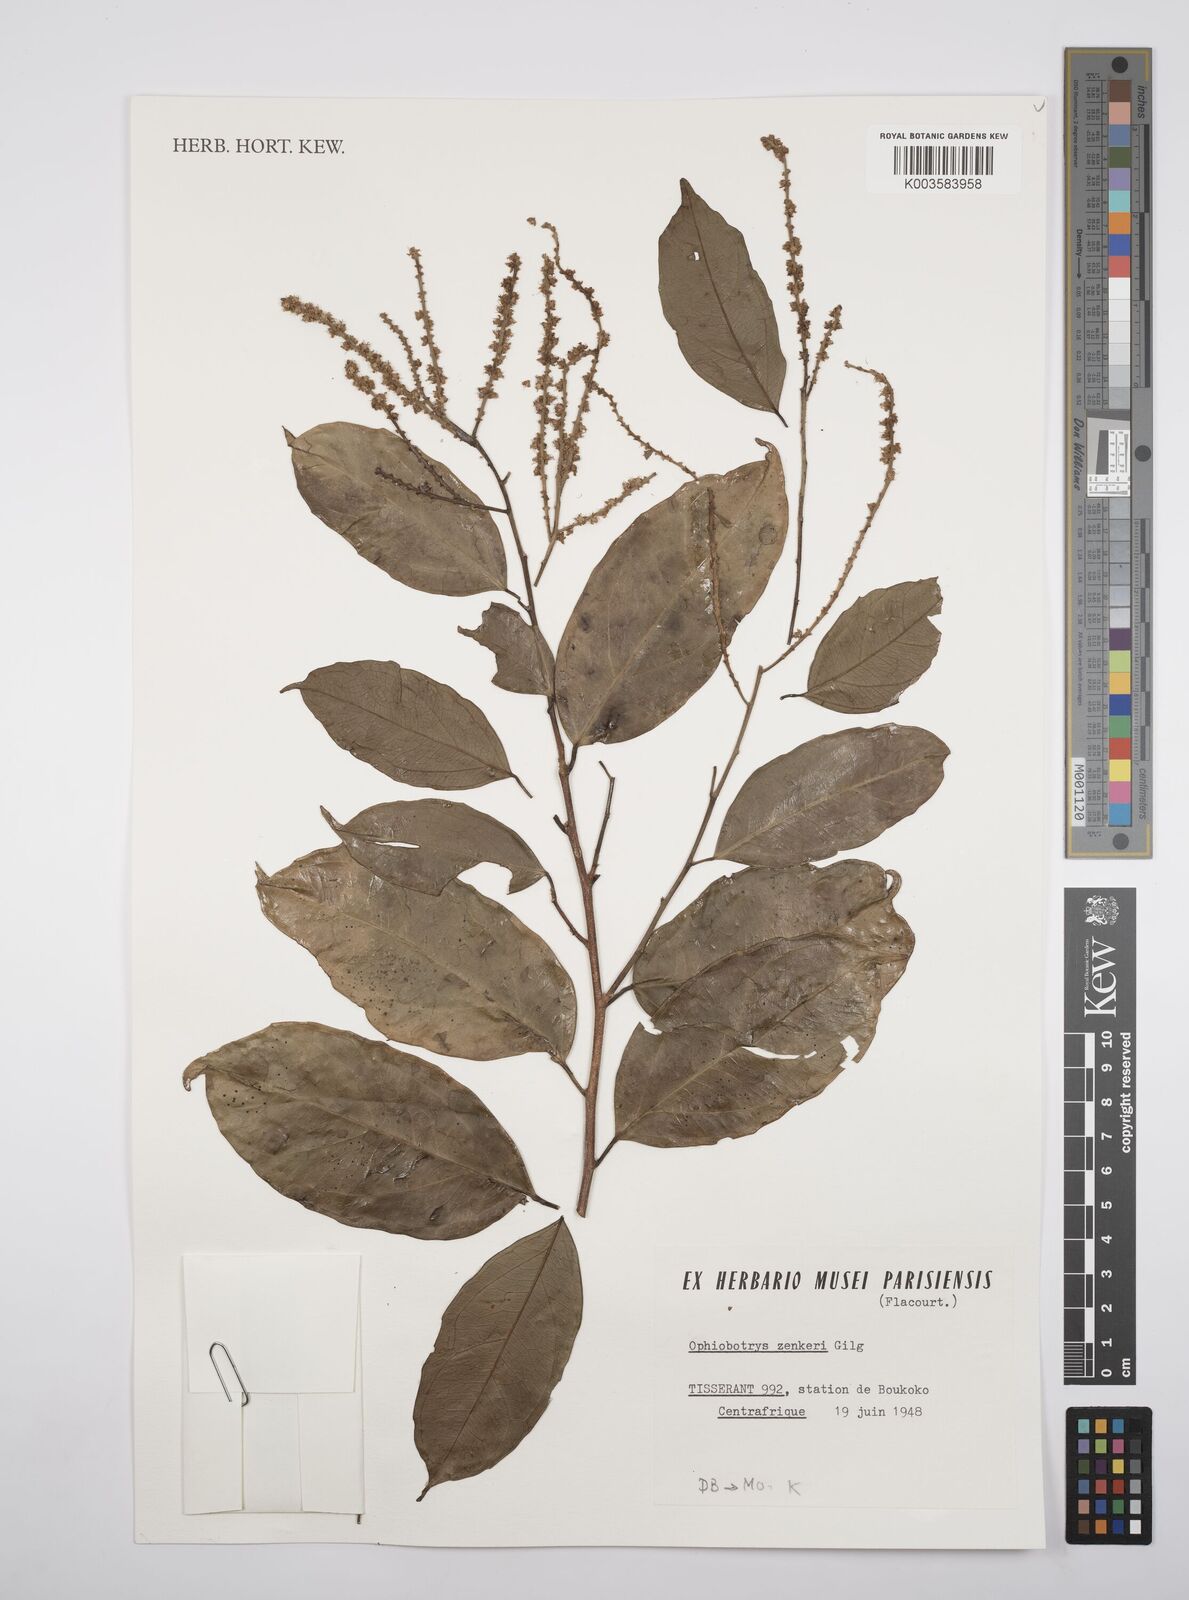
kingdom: Plantae
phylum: Tracheophyta
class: Magnoliopsida
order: Malpighiales
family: Salicaceae
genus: Ophiobotrys
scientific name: Ophiobotrys zenkeri
